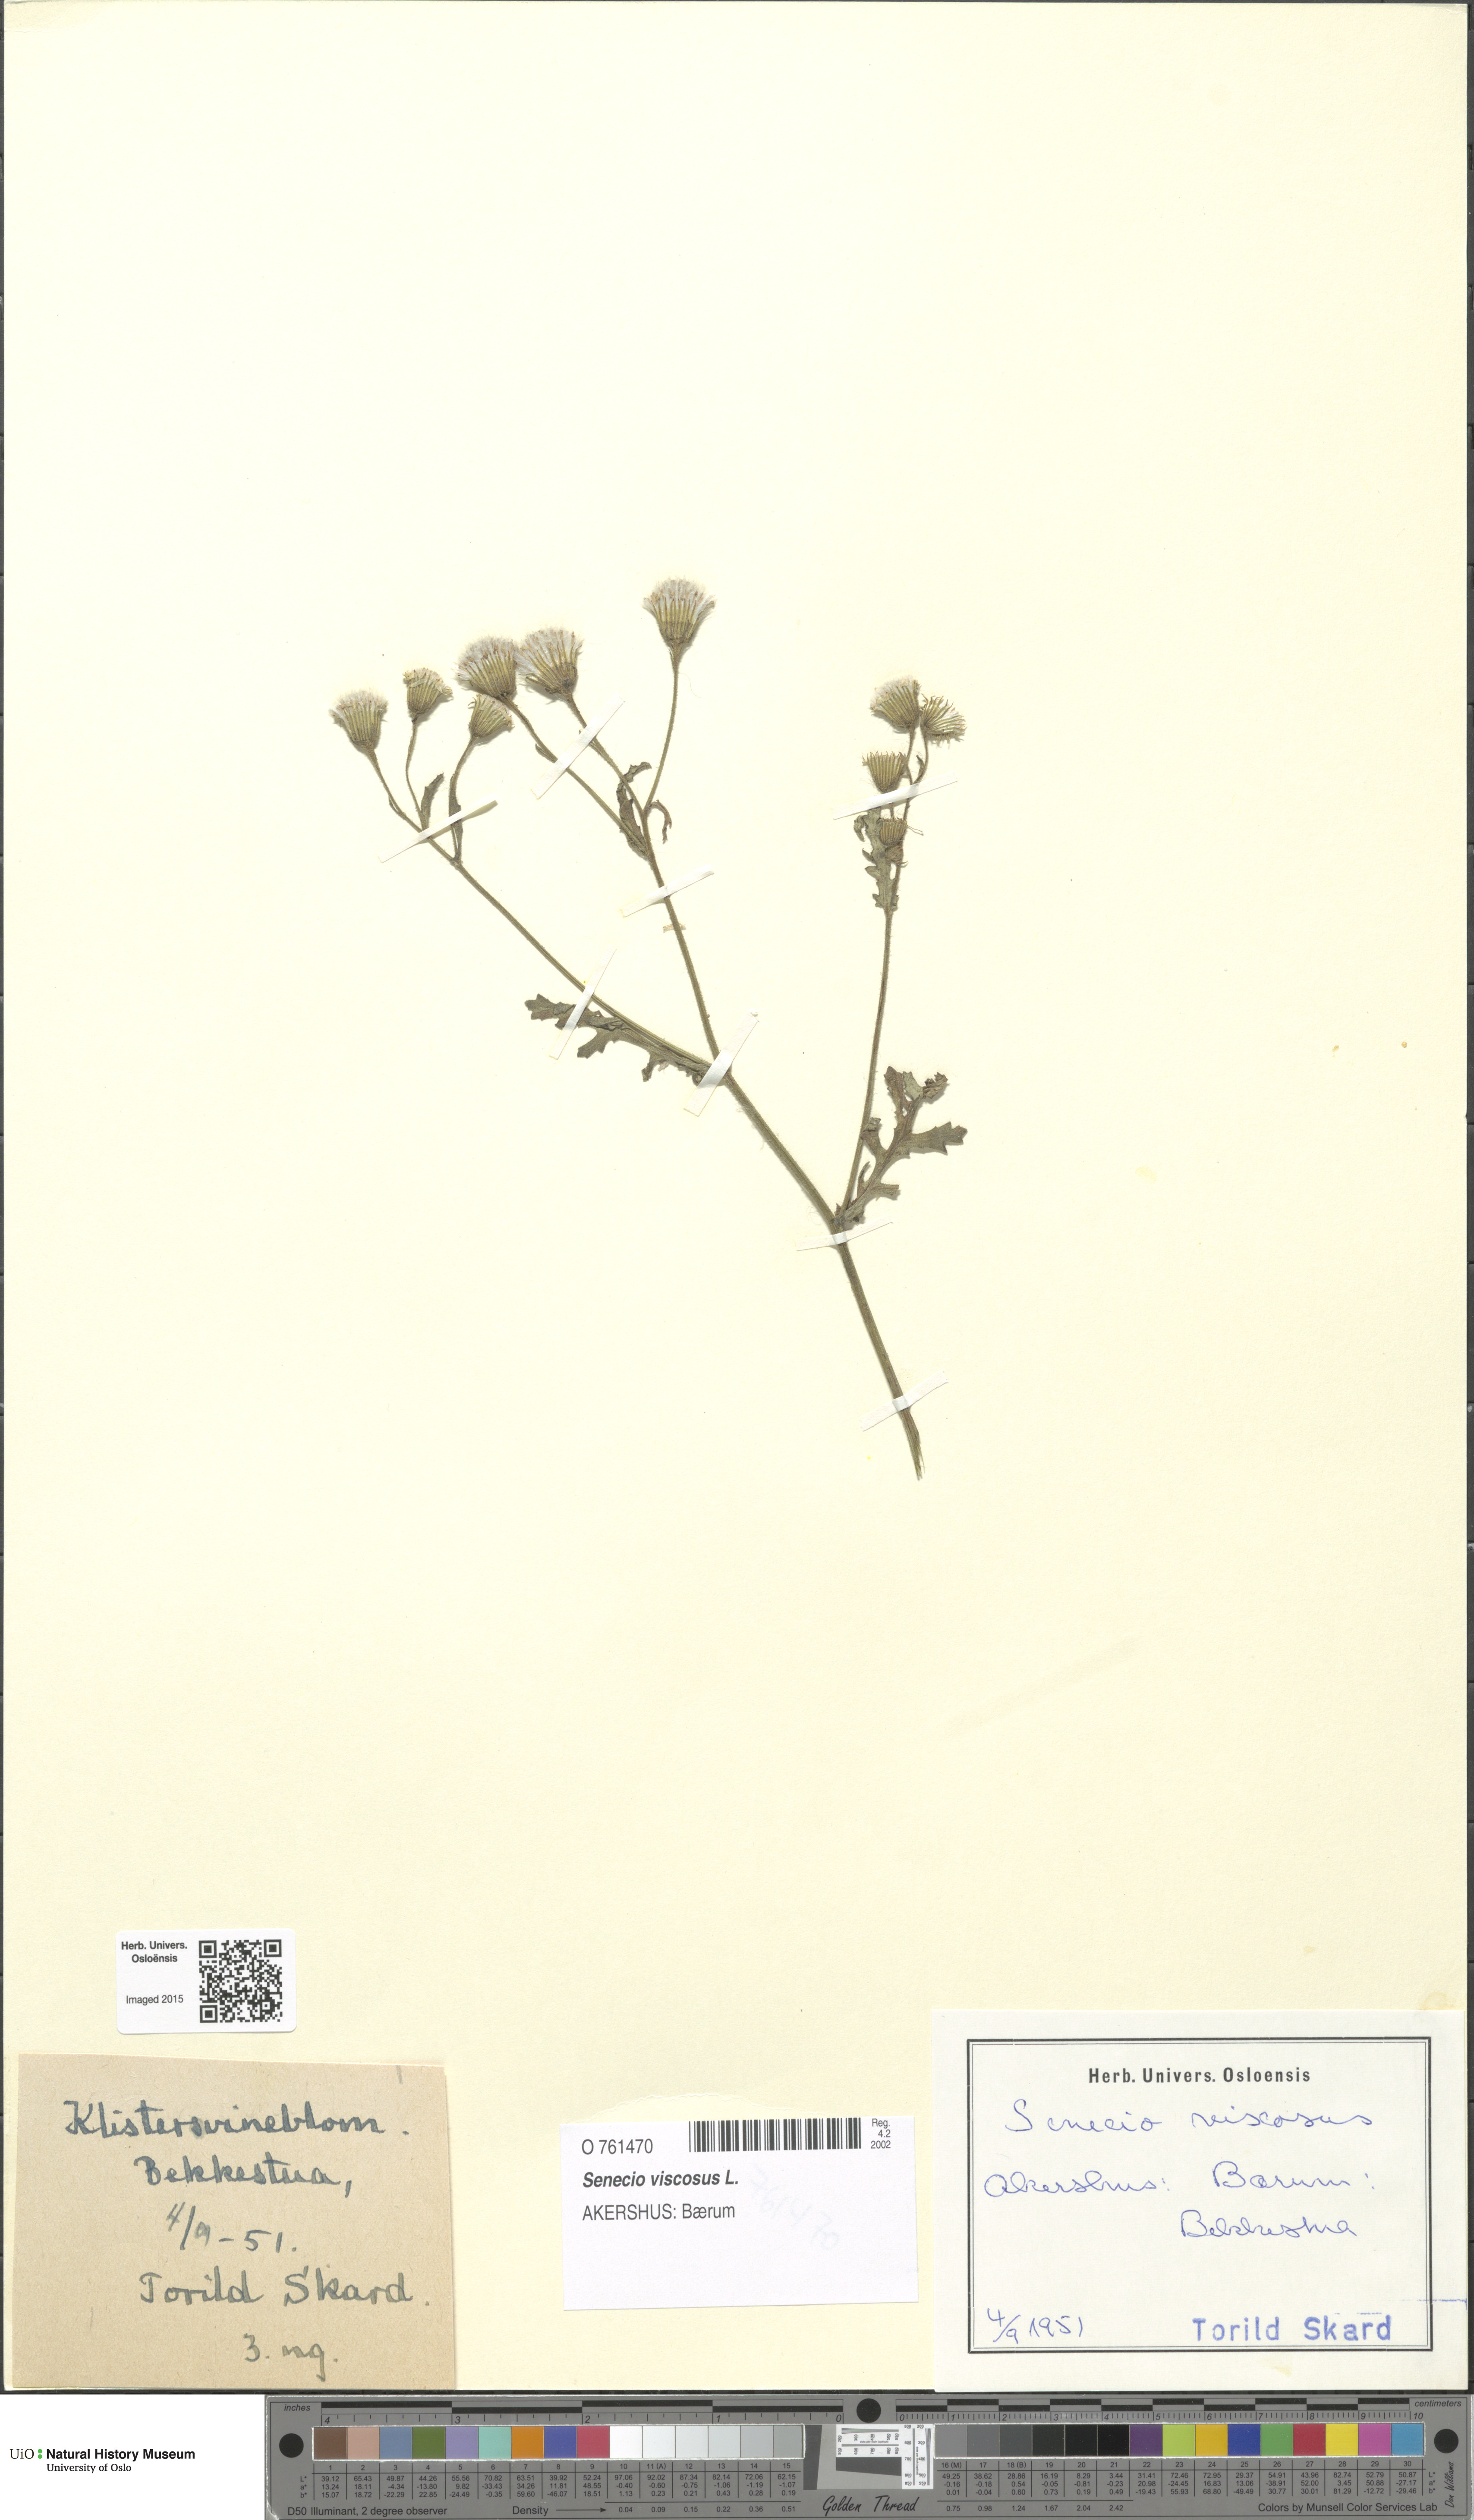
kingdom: Plantae
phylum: Tracheophyta
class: Magnoliopsida
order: Asterales
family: Asteraceae
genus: Senecio
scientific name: Senecio viscosus
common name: Sticky groundsel
